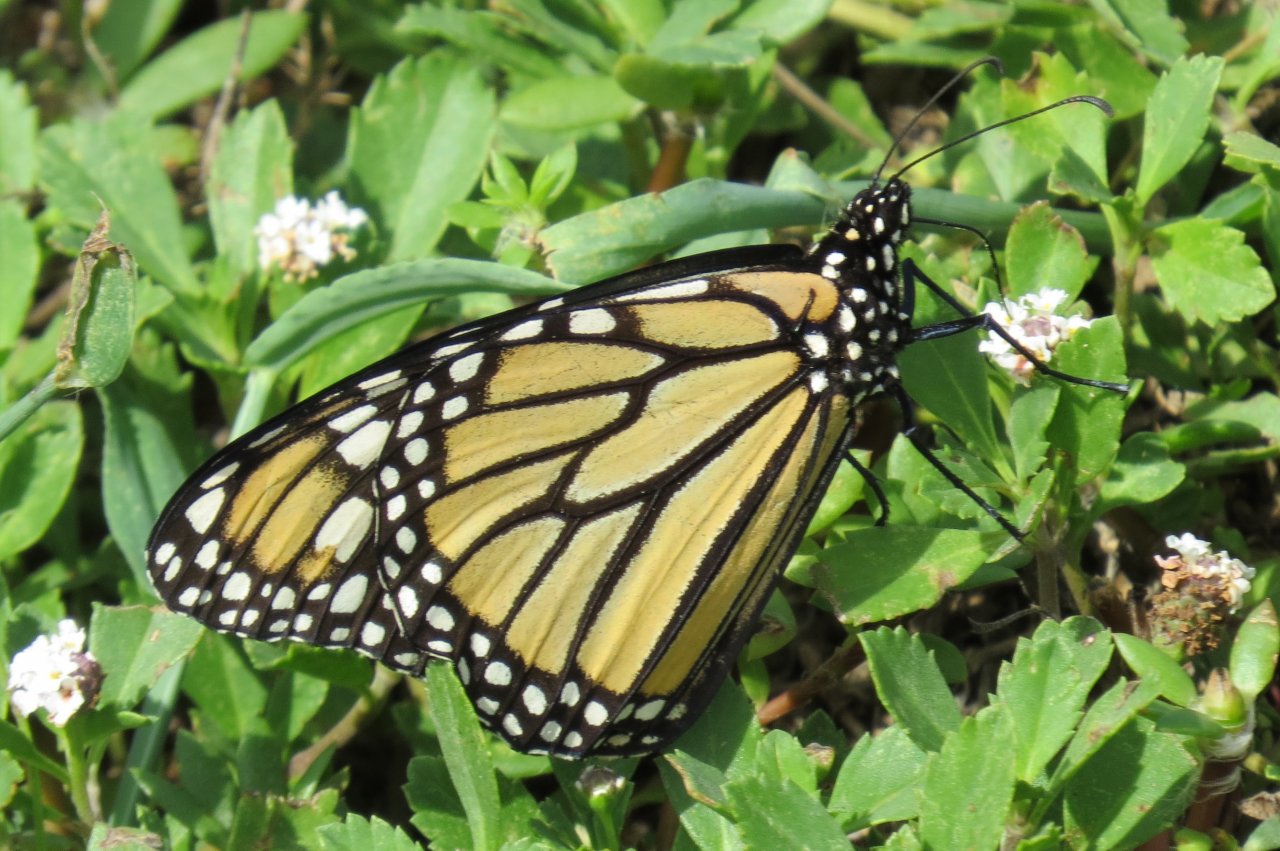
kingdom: Animalia
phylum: Arthropoda
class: Insecta
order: Lepidoptera
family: Nymphalidae
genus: Danaus
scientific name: Danaus plexippus
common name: Monarch
